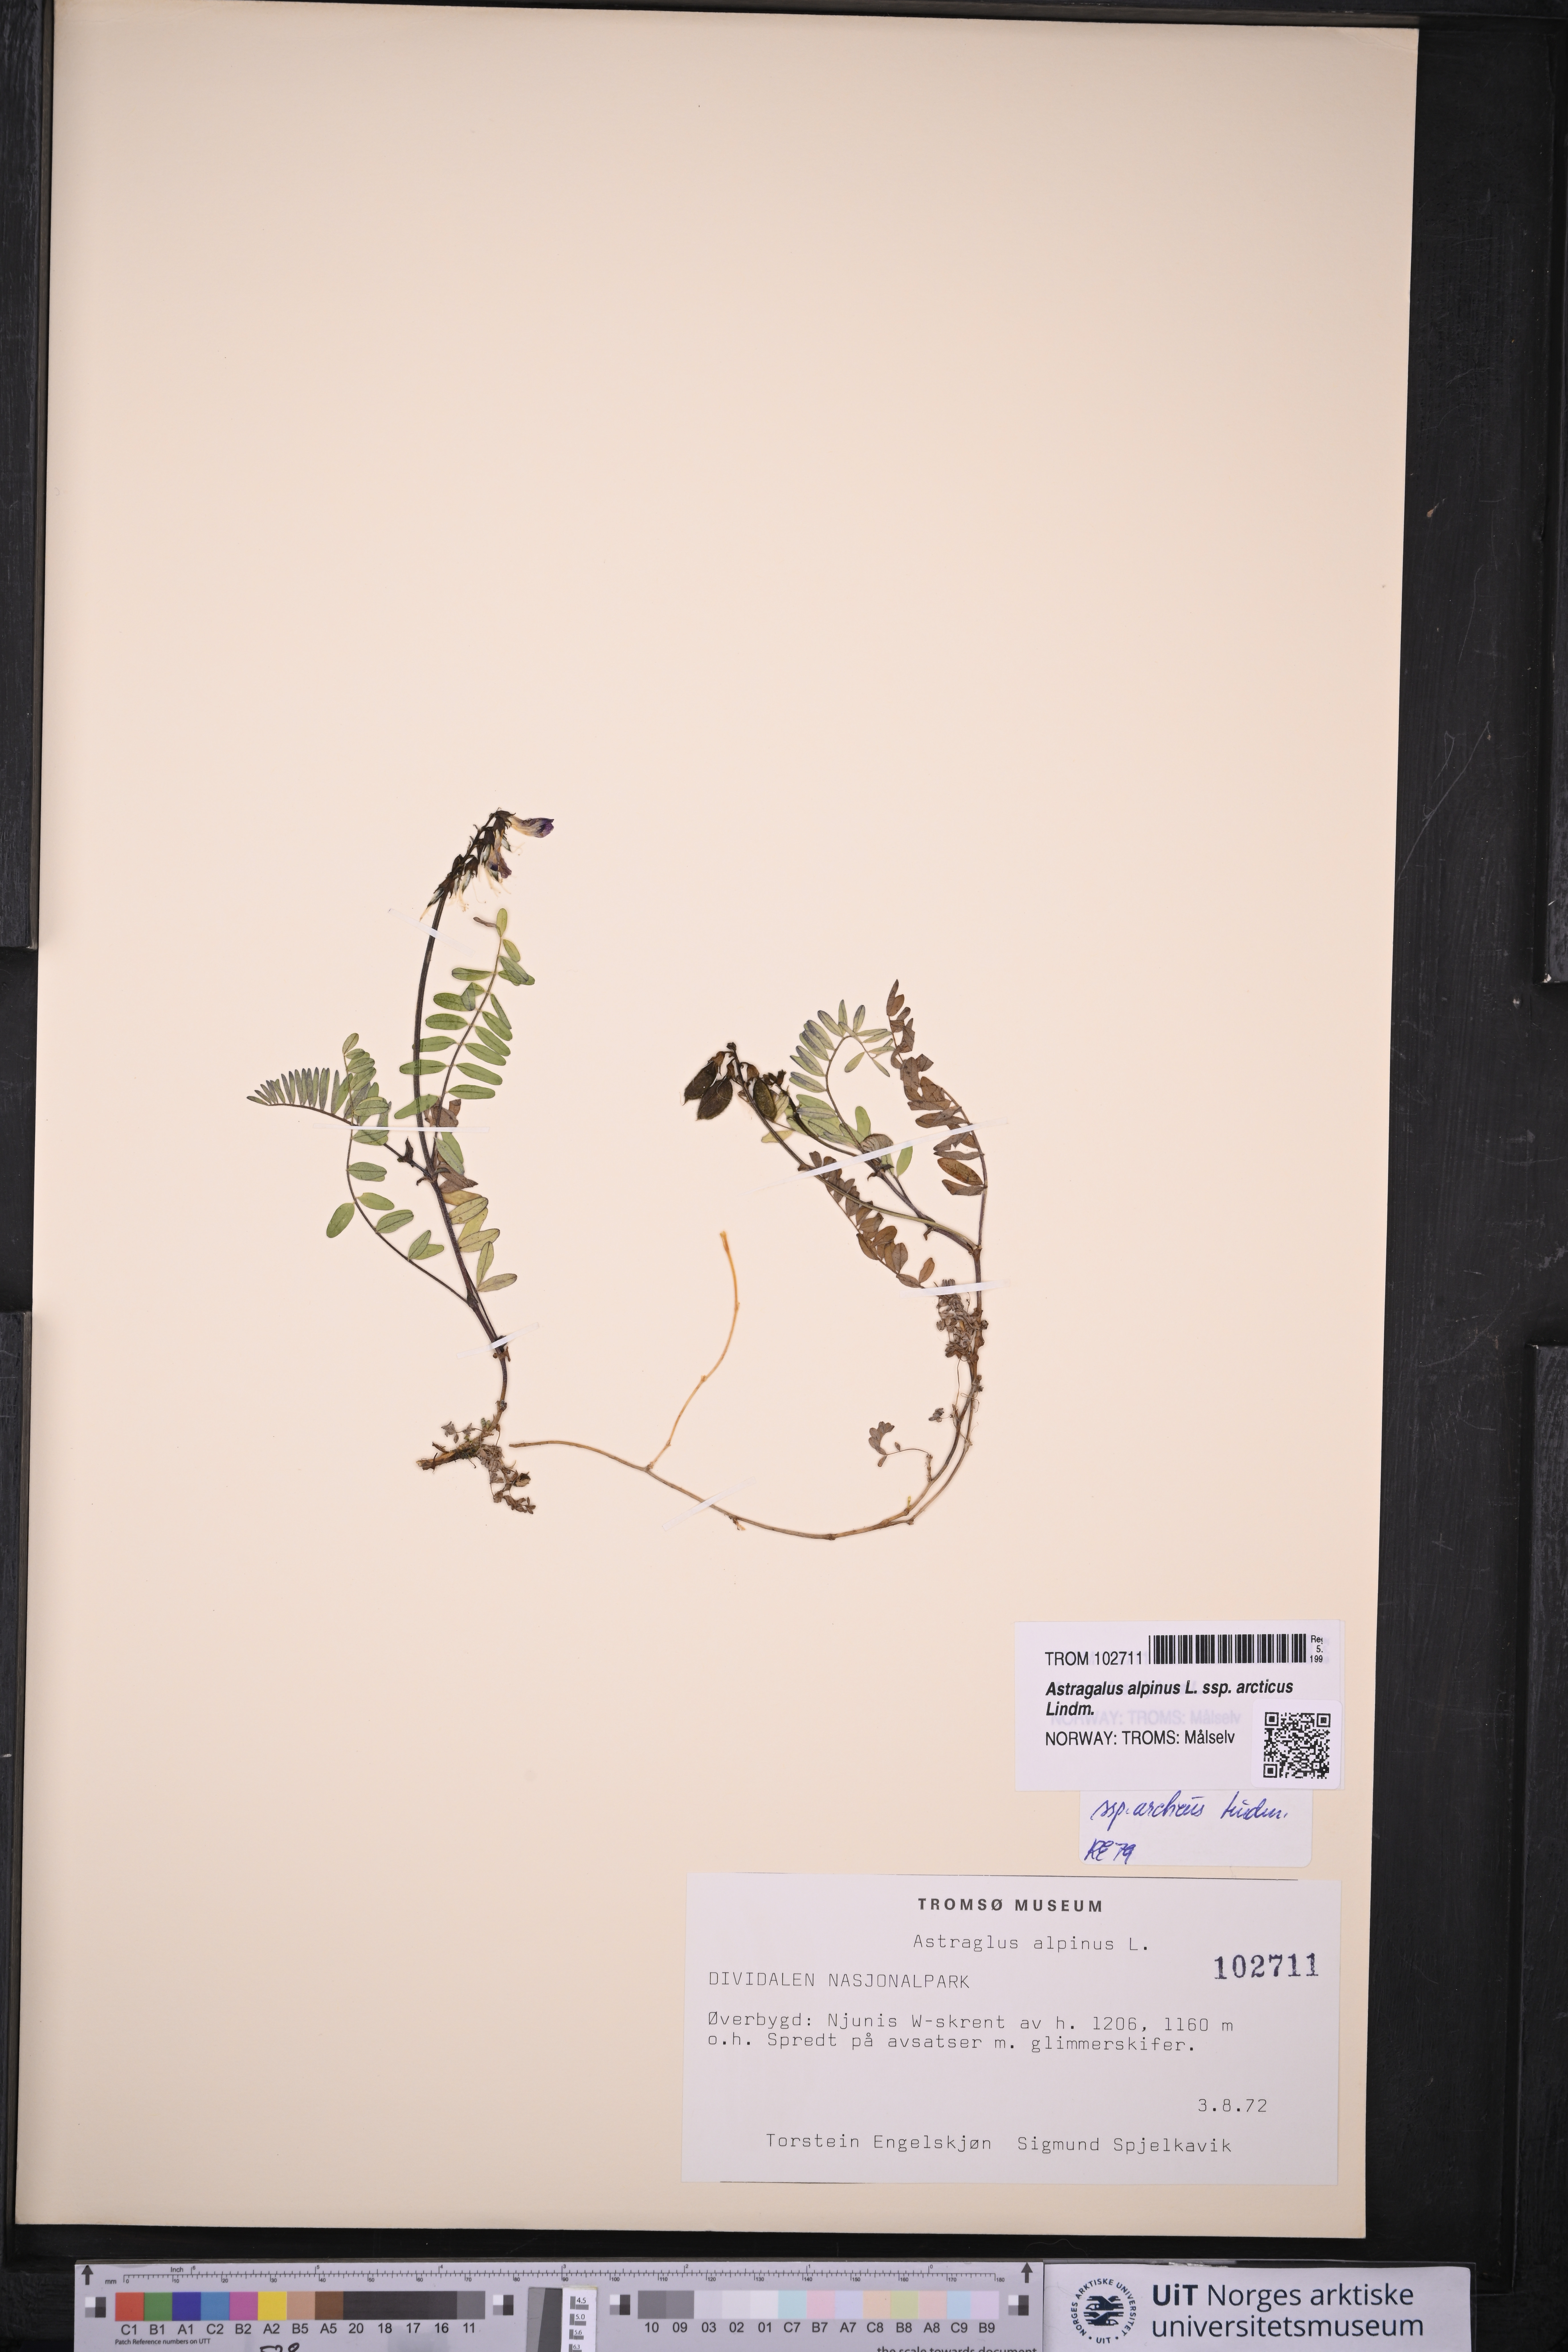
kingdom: Plantae
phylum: Tracheophyta
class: Magnoliopsida
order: Fabales
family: Fabaceae
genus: Astragalus
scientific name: Astragalus norvegicus
